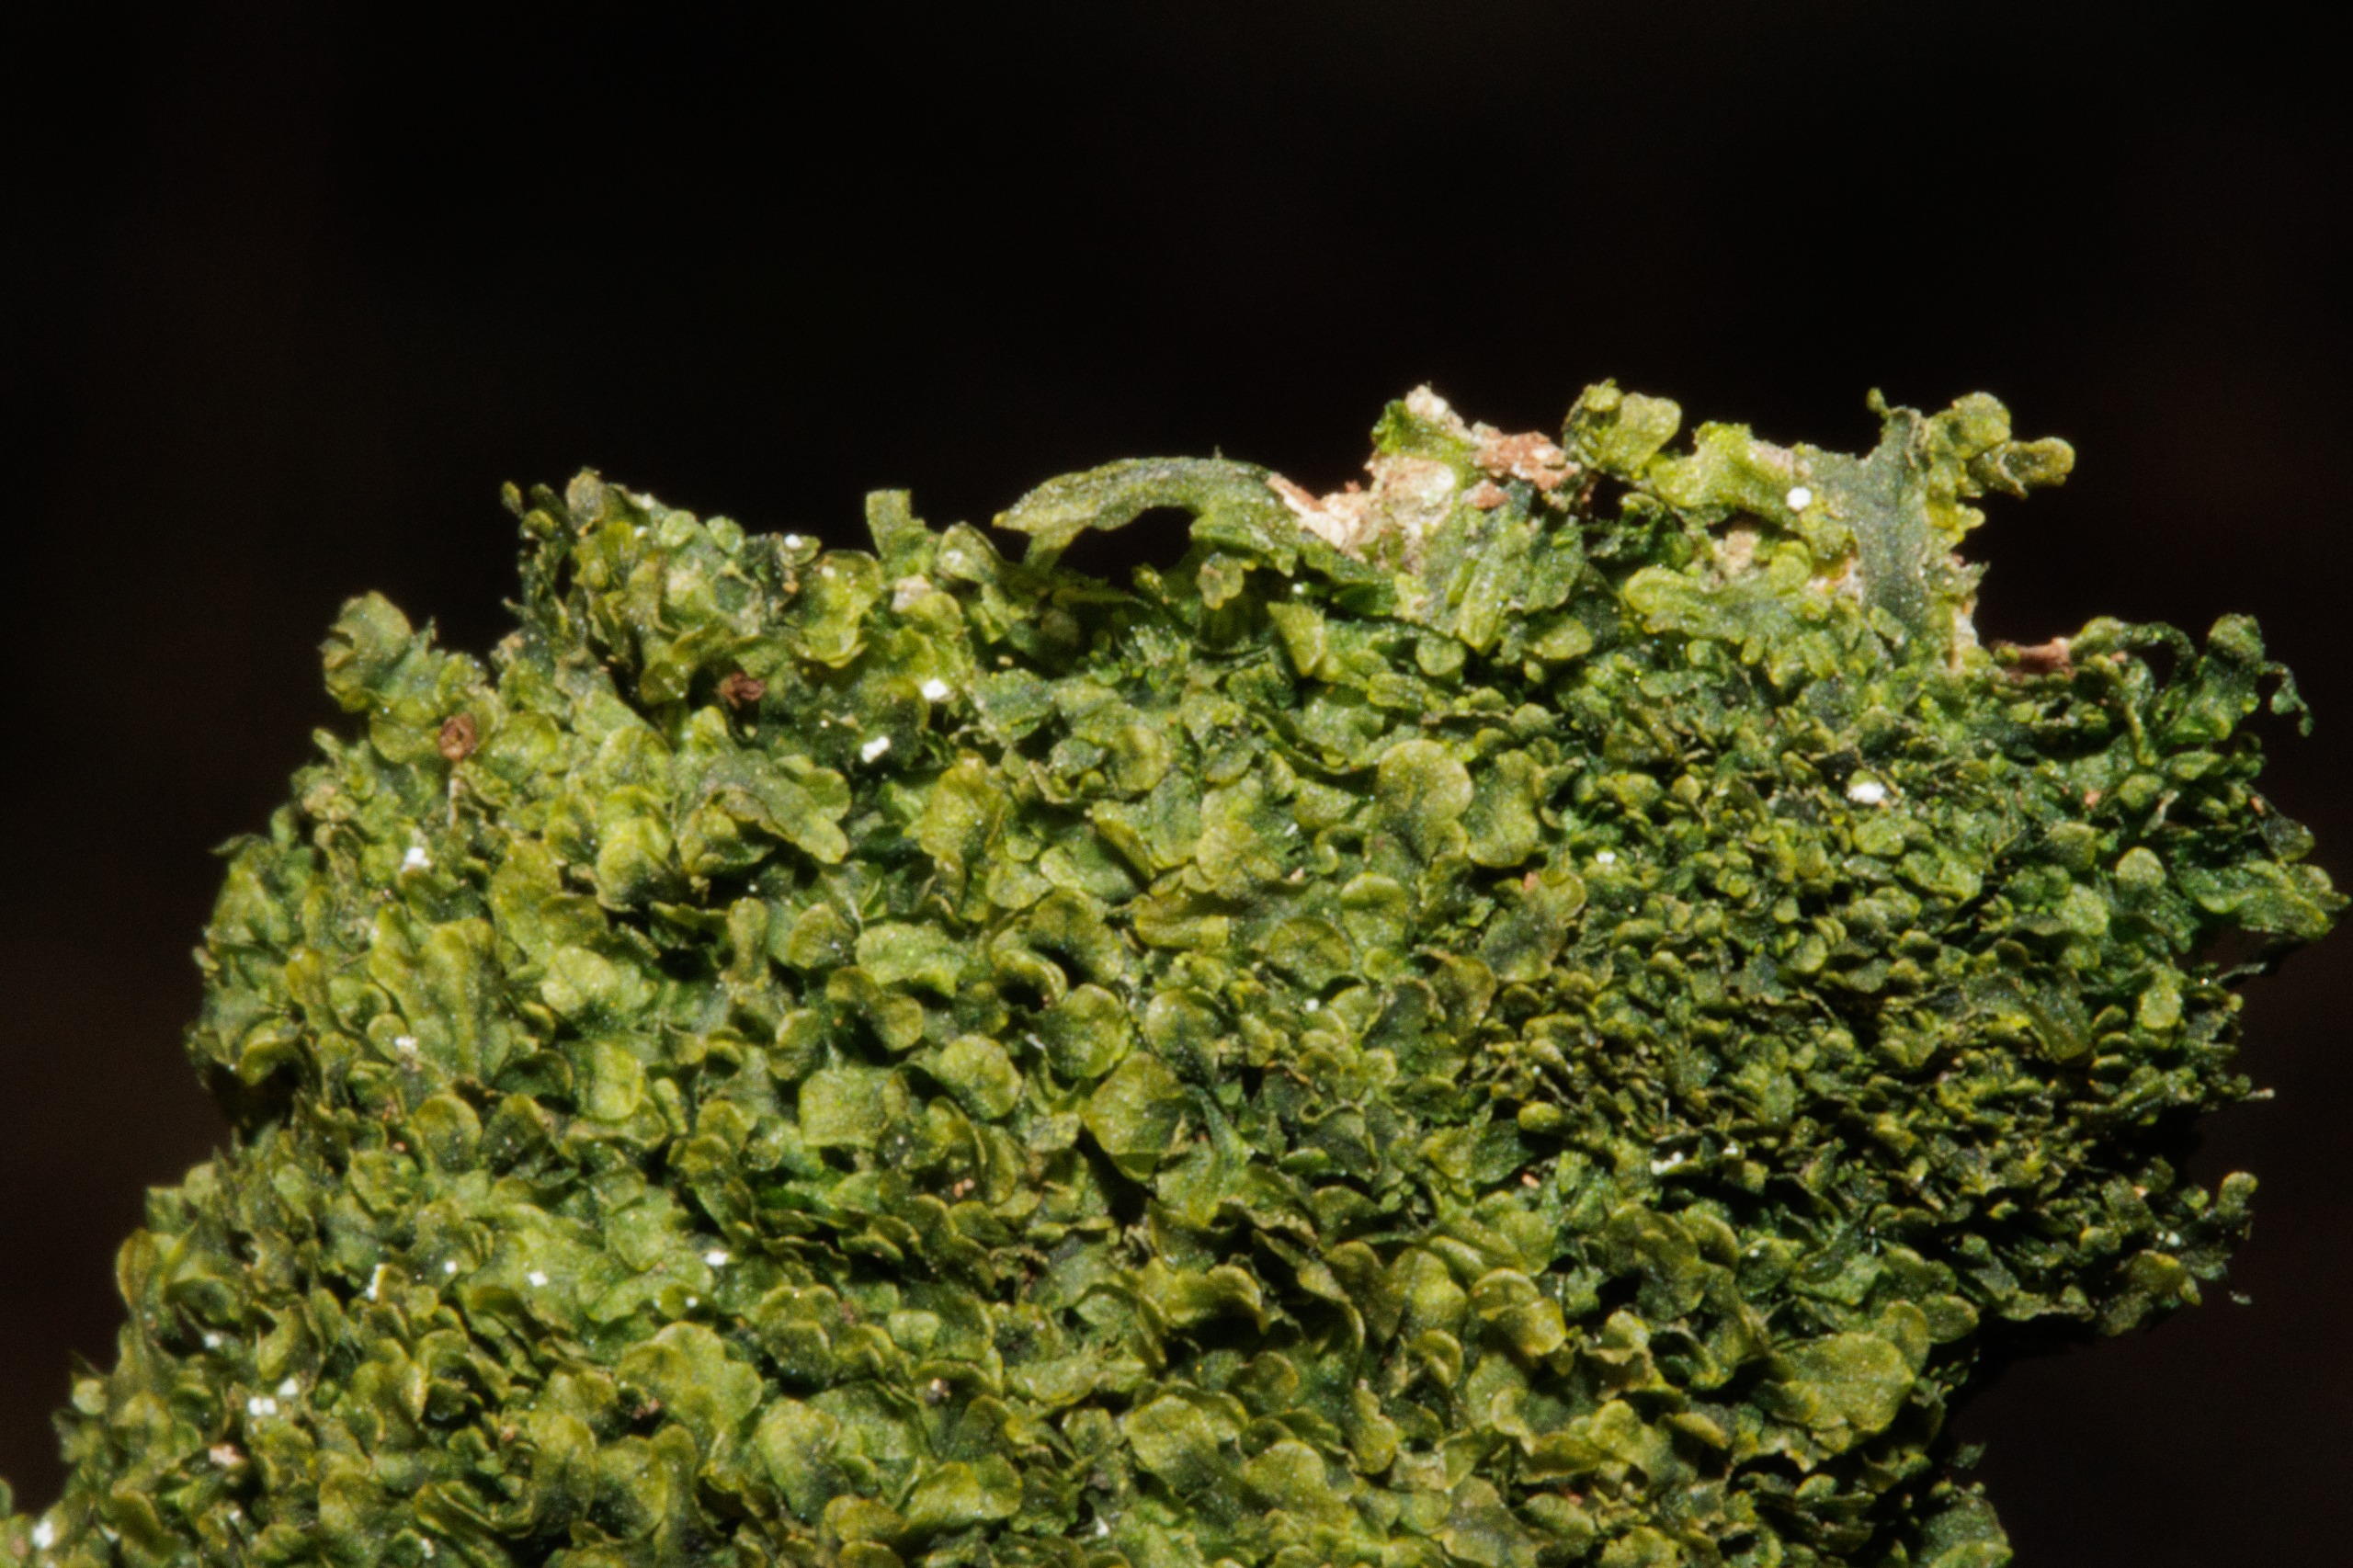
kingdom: Plantae
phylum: Marchantiophyta
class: Jungermanniopsida
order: Metzgeriales
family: Metzgeriaceae
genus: Metzgeria
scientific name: Metzgeria furcata
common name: Almindelig gaffelløv
